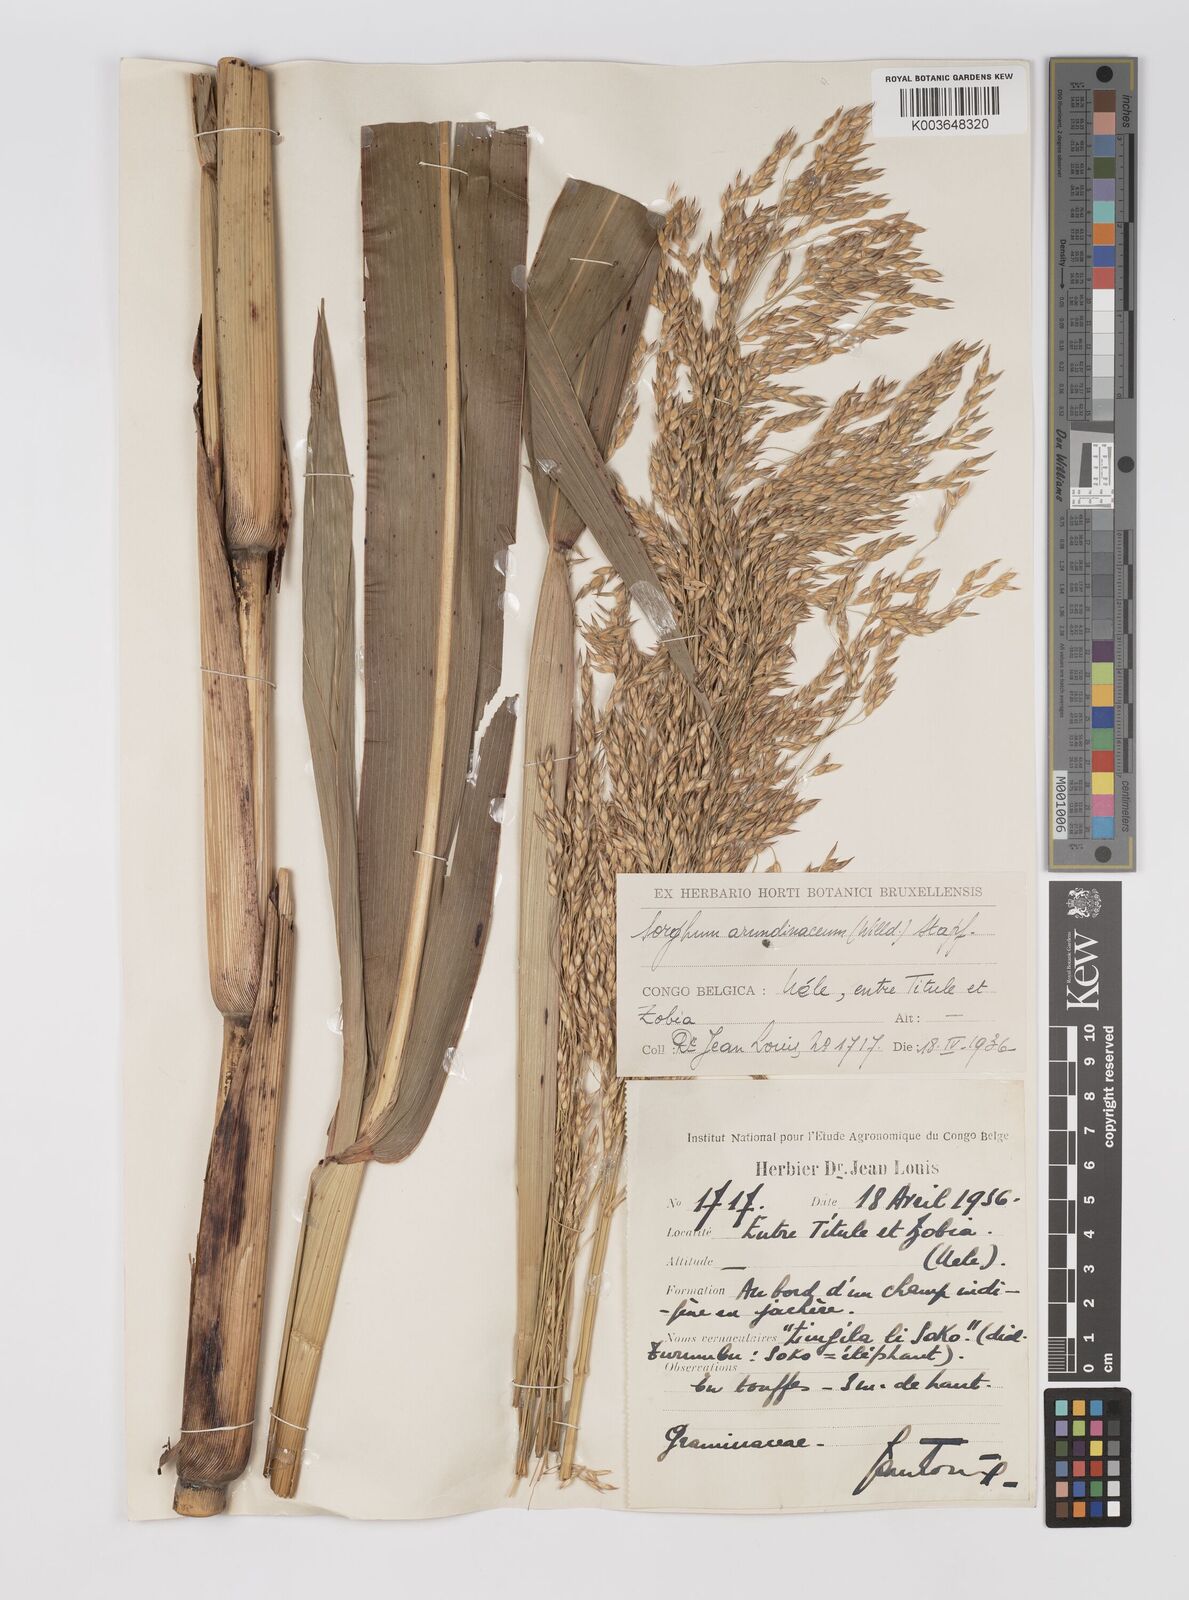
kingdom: Plantae
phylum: Tracheophyta
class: Liliopsida
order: Poales
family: Poaceae
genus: Sorghum
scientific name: Sorghum arundinaceum
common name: Sorghum
